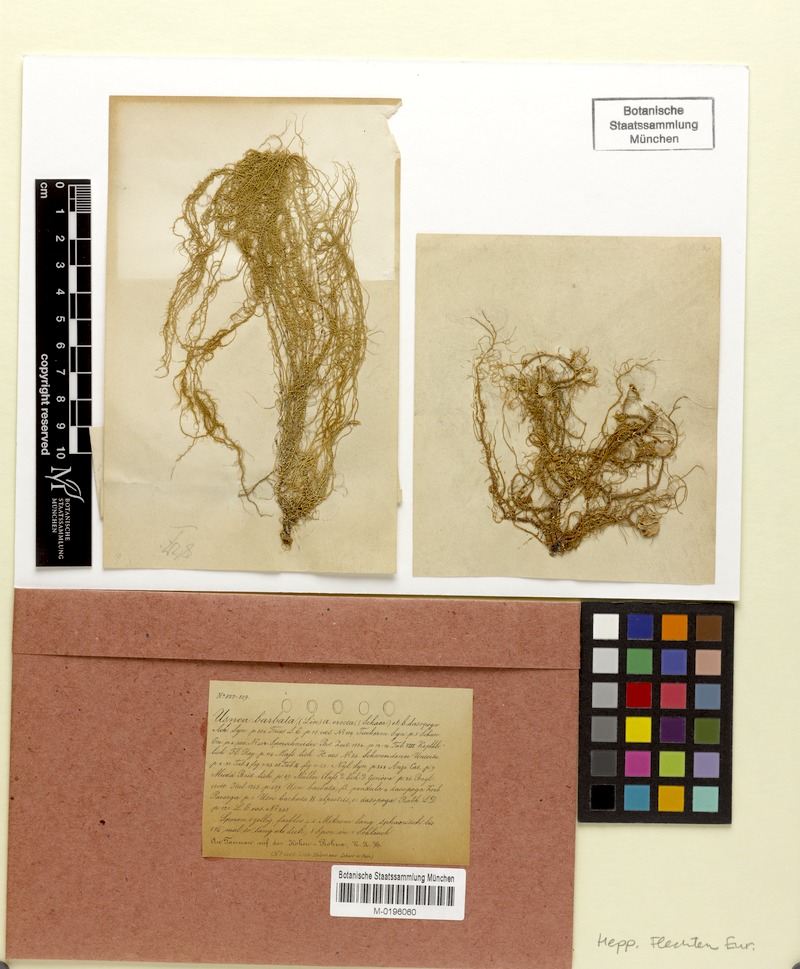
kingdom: Fungi
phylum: Ascomycota
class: Lecanoromycetes
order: Lecanorales
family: Parmeliaceae
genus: Usnea
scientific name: Usnea dasopoga
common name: Fishbone beard lichen
